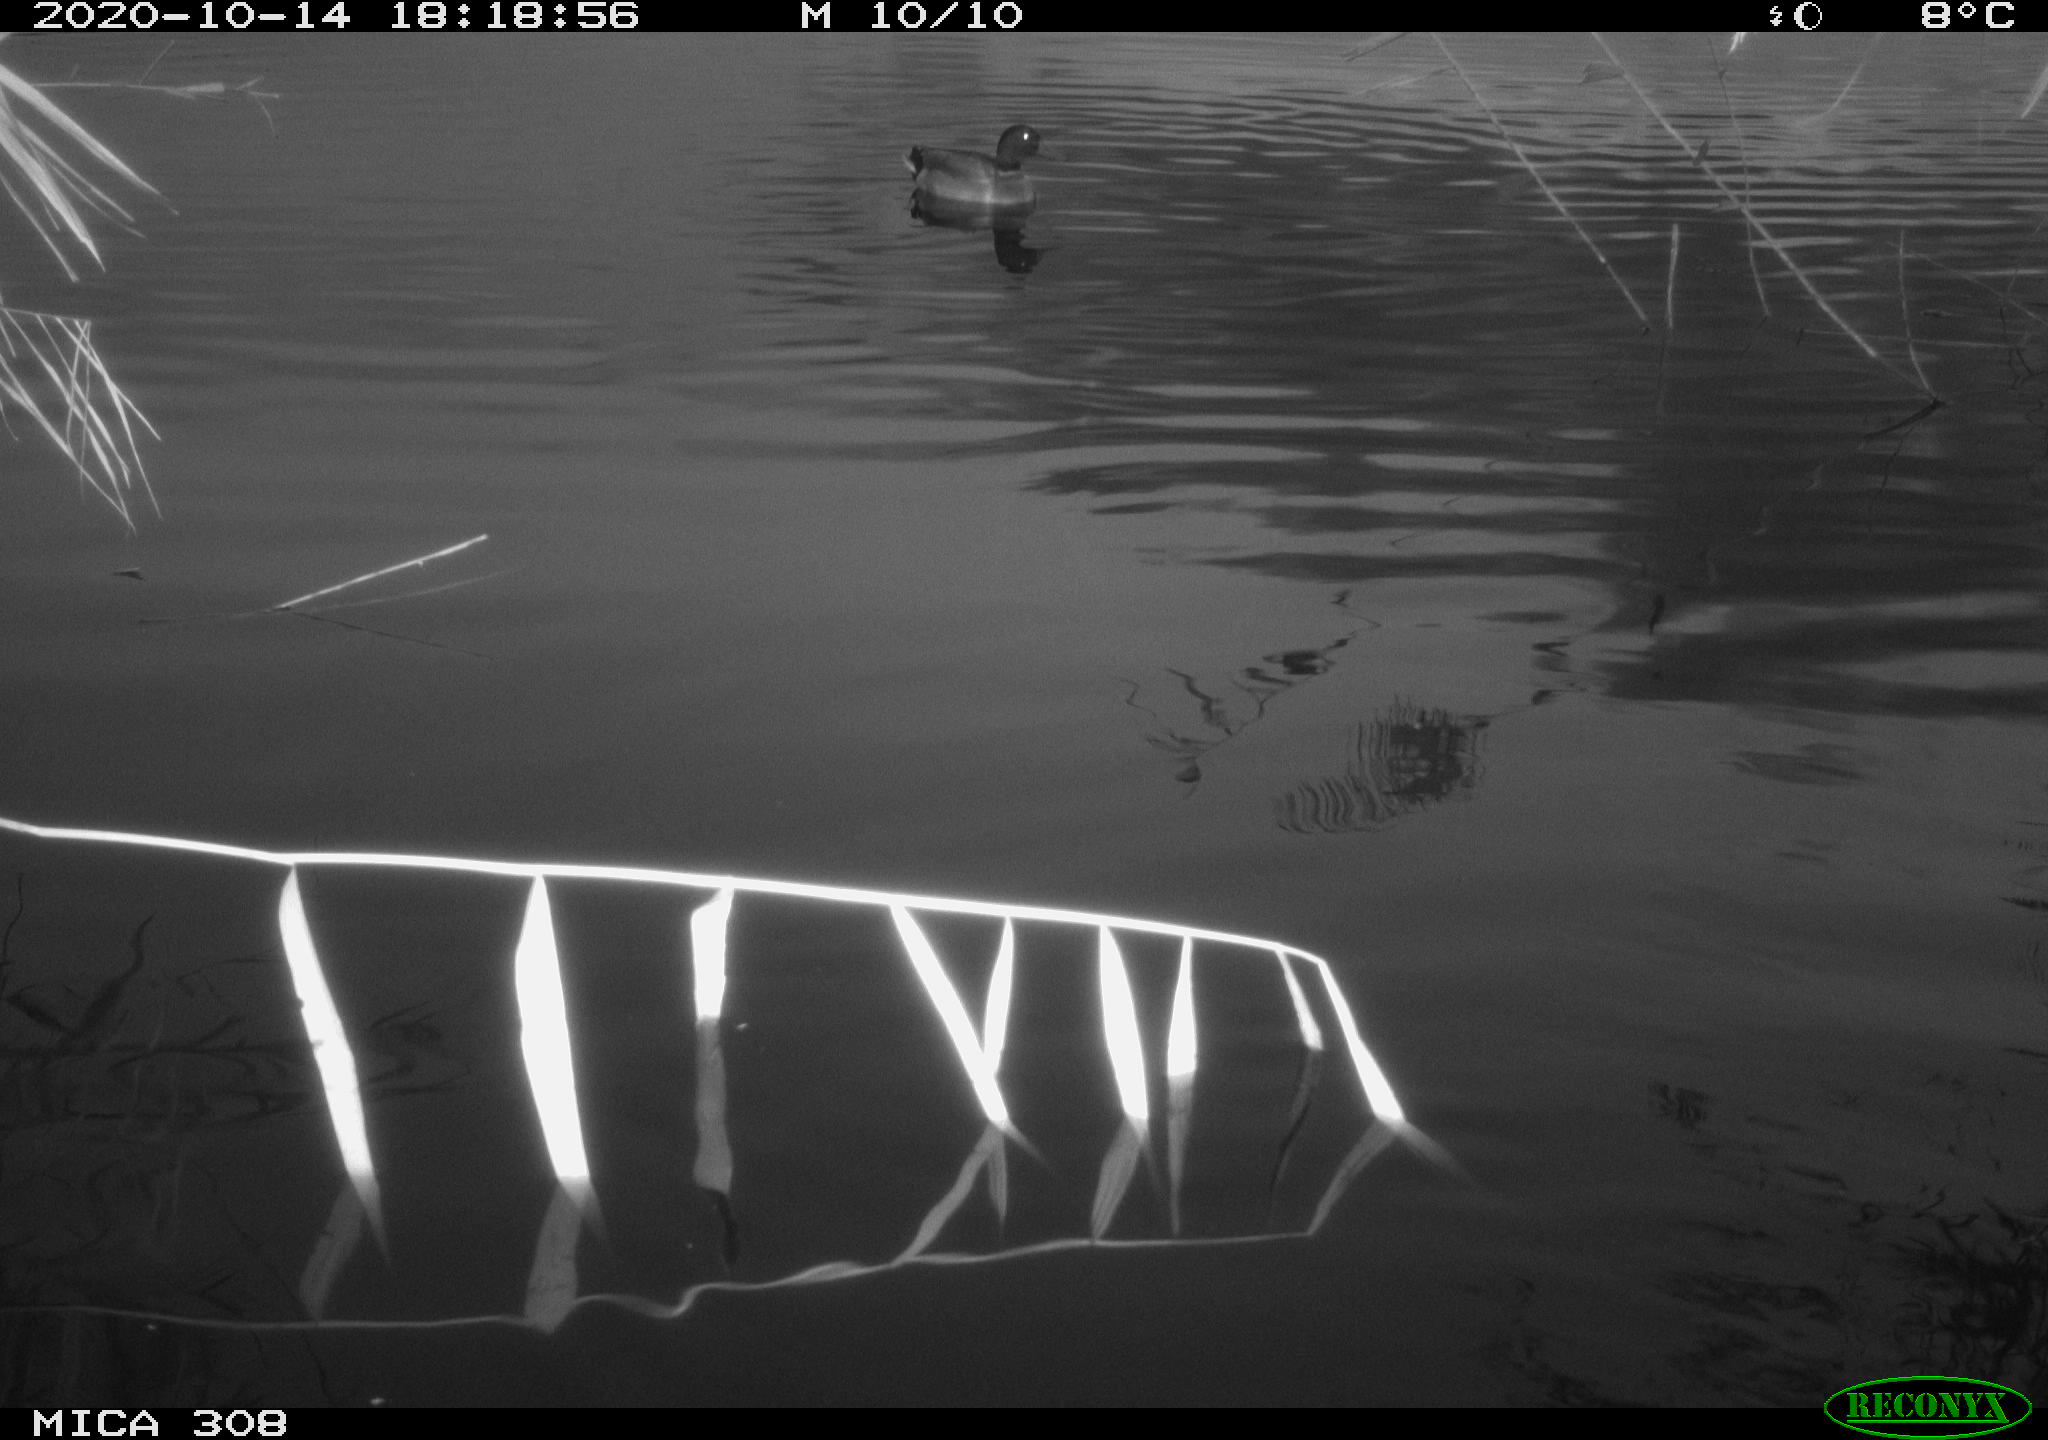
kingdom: Animalia
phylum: Chordata
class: Aves
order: Anseriformes
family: Anatidae
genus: Anas
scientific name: Anas platyrhynchos
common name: Mallard
